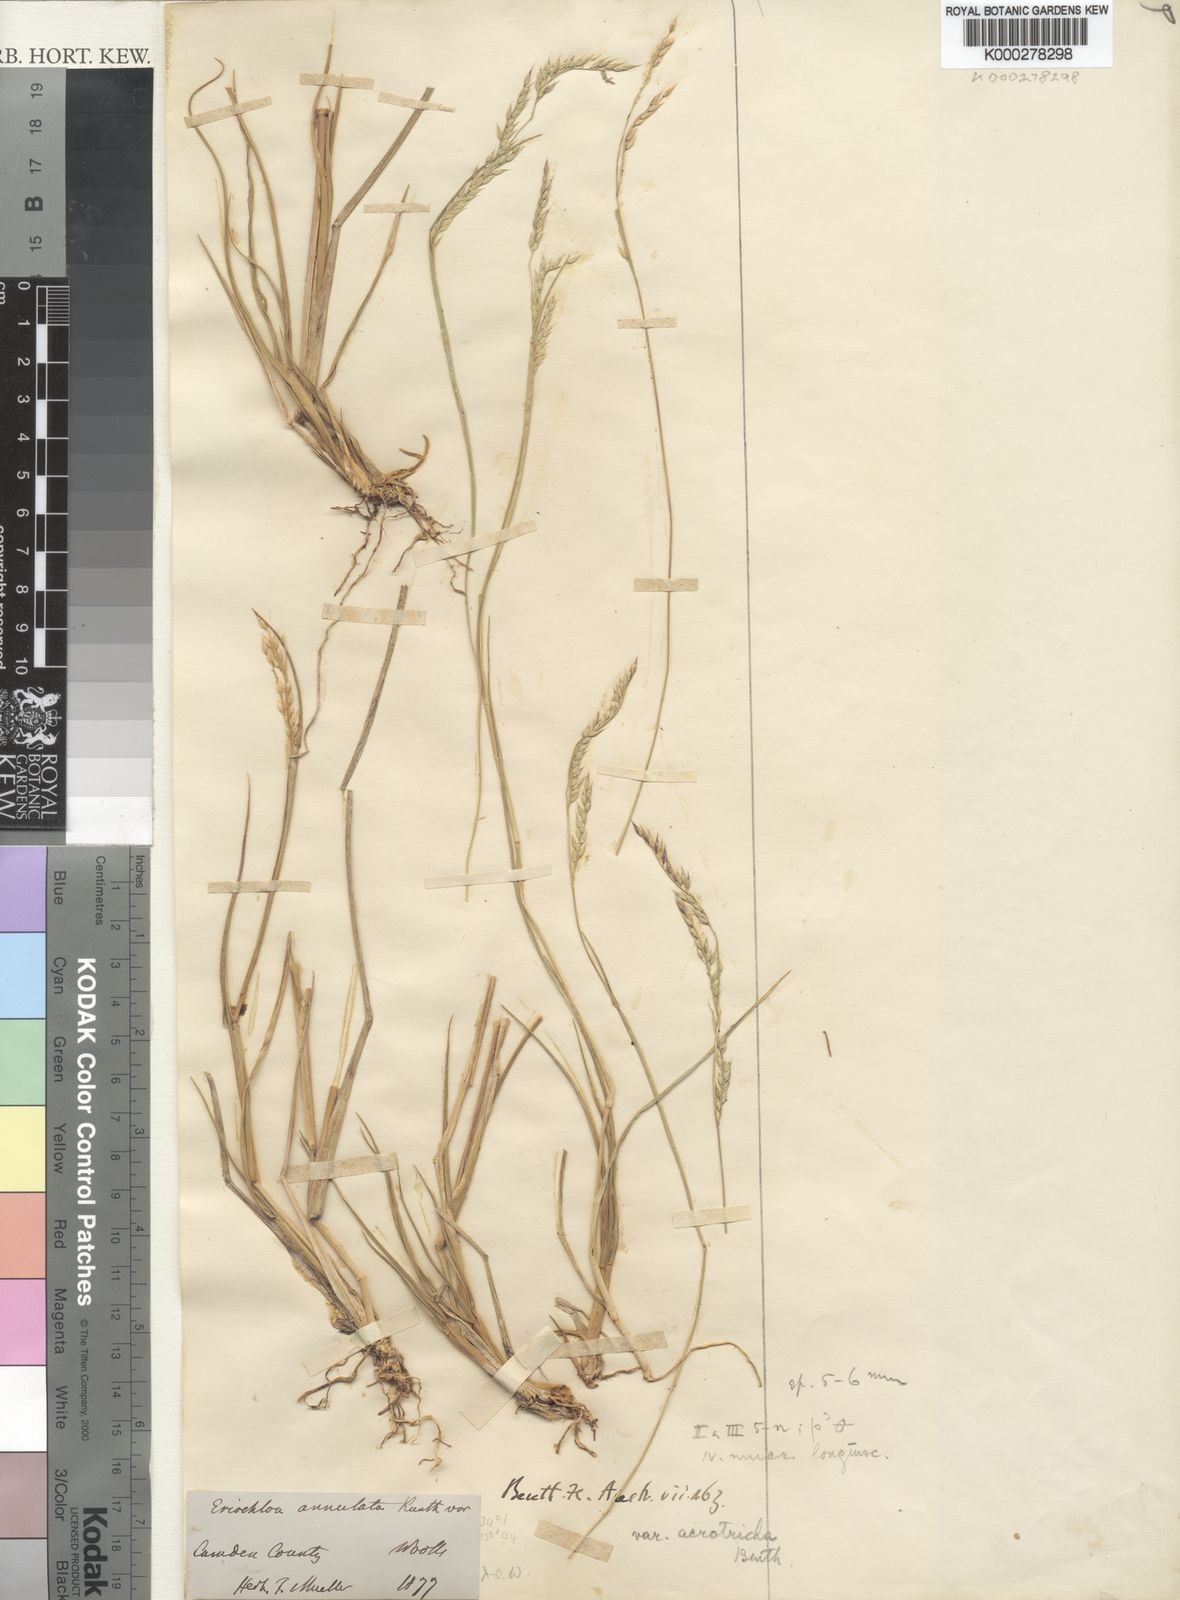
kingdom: Plantae
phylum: Tracheophyta
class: Liliopsida
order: Poales
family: Poaceae
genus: Eriochloa
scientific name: Eriochloa pseudoacrotricha
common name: Perennial cup-grass
